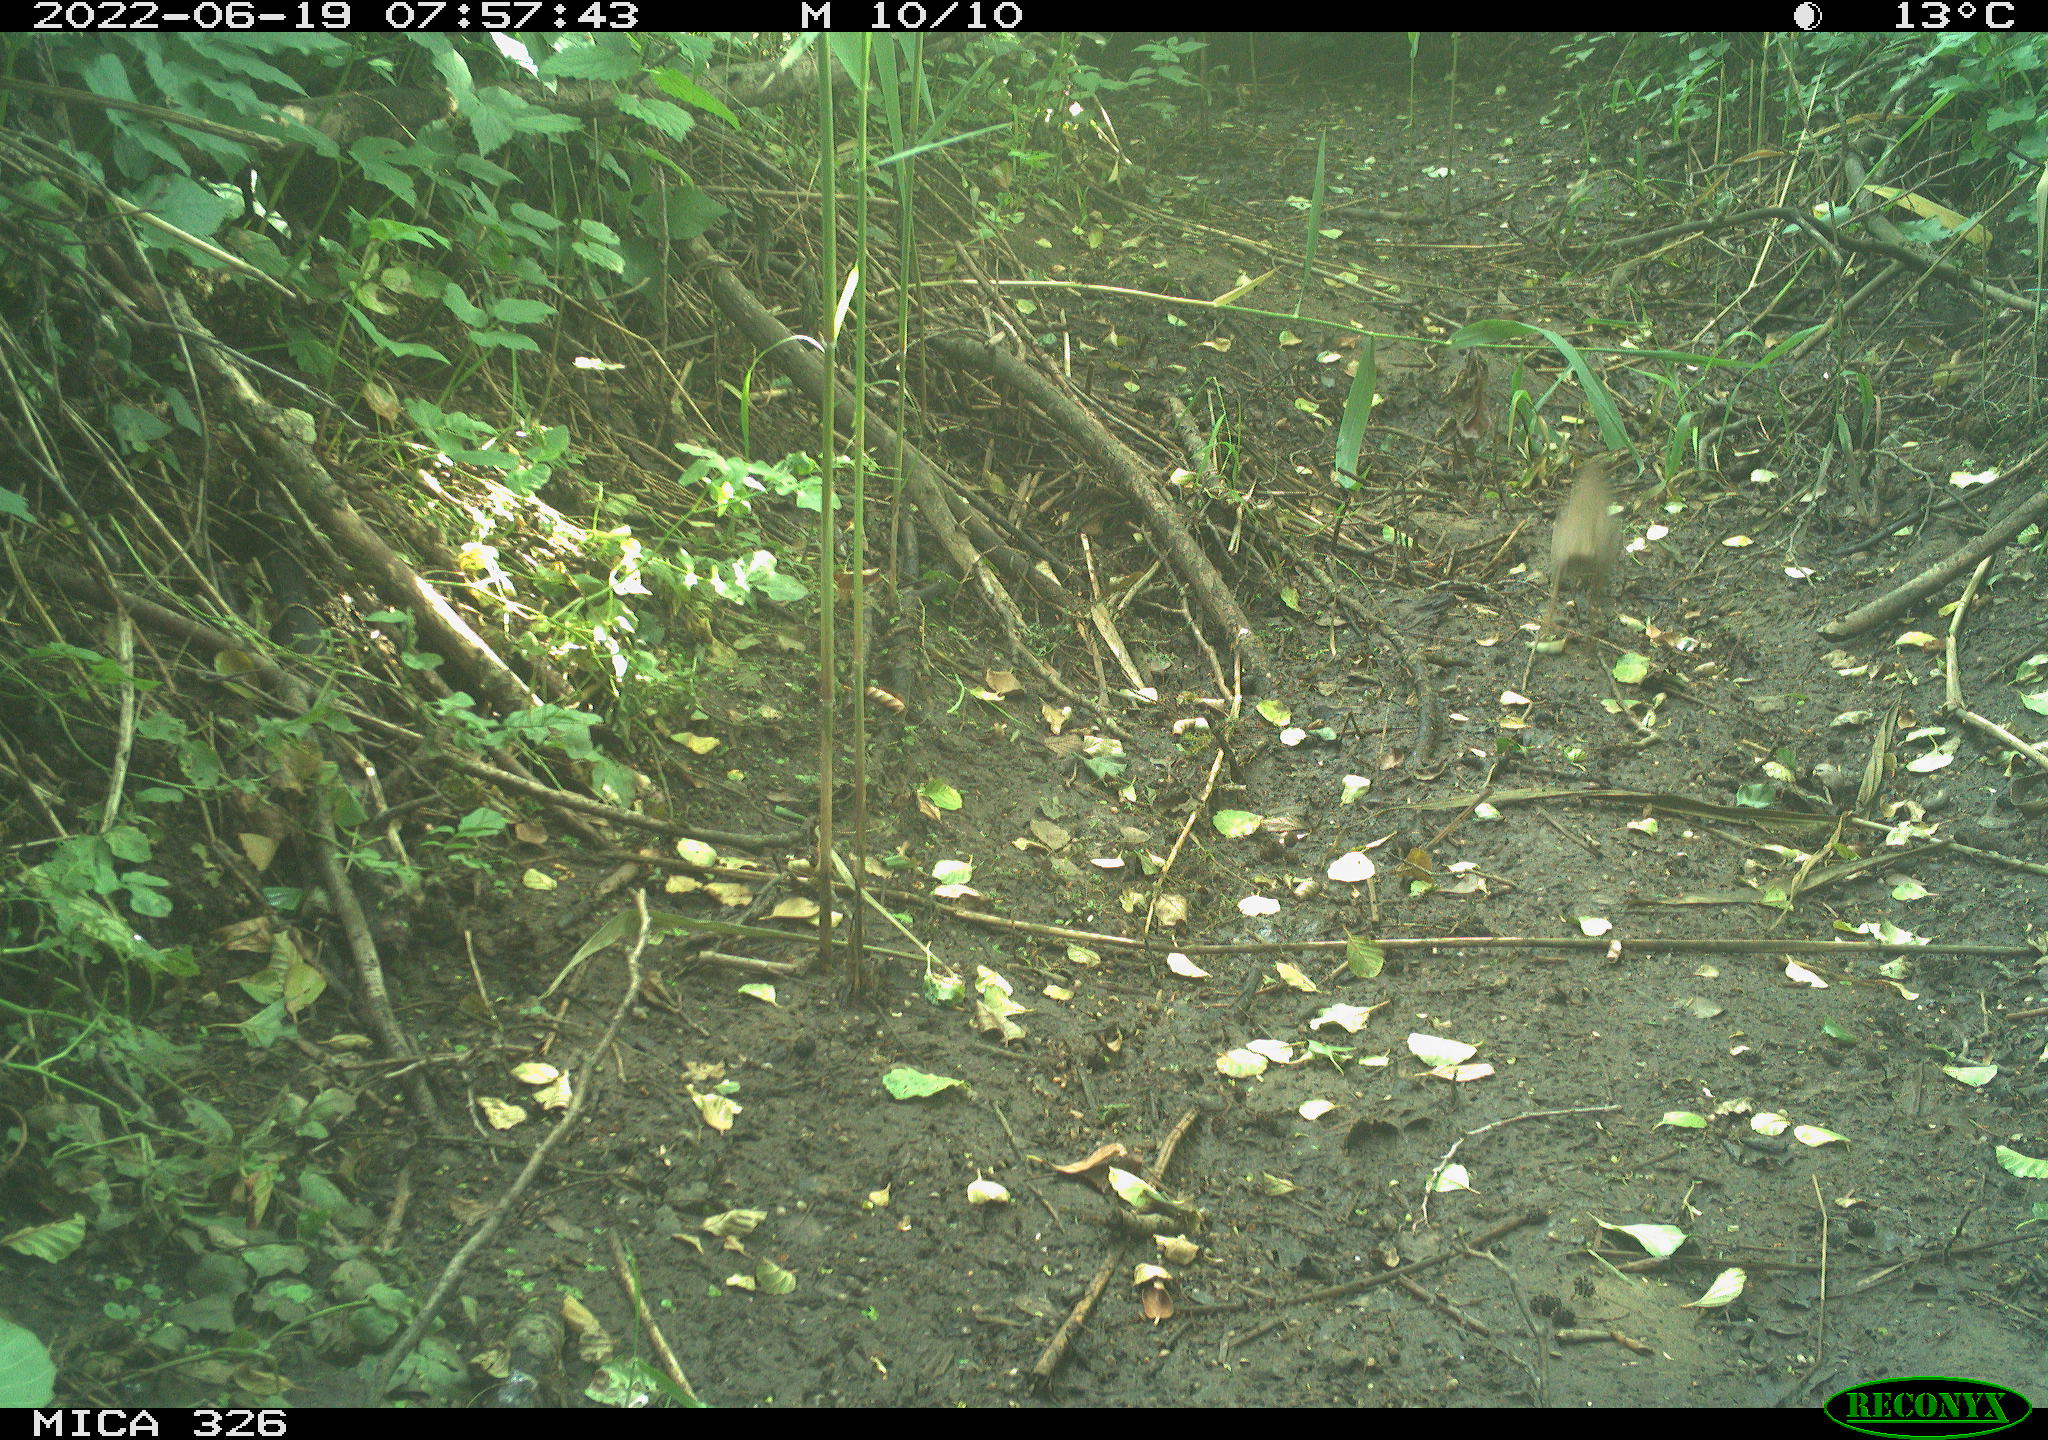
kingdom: Animalia
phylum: Chordata
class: Aves
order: Passeriformes
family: Turdidae
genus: Turdus
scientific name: Turdus
